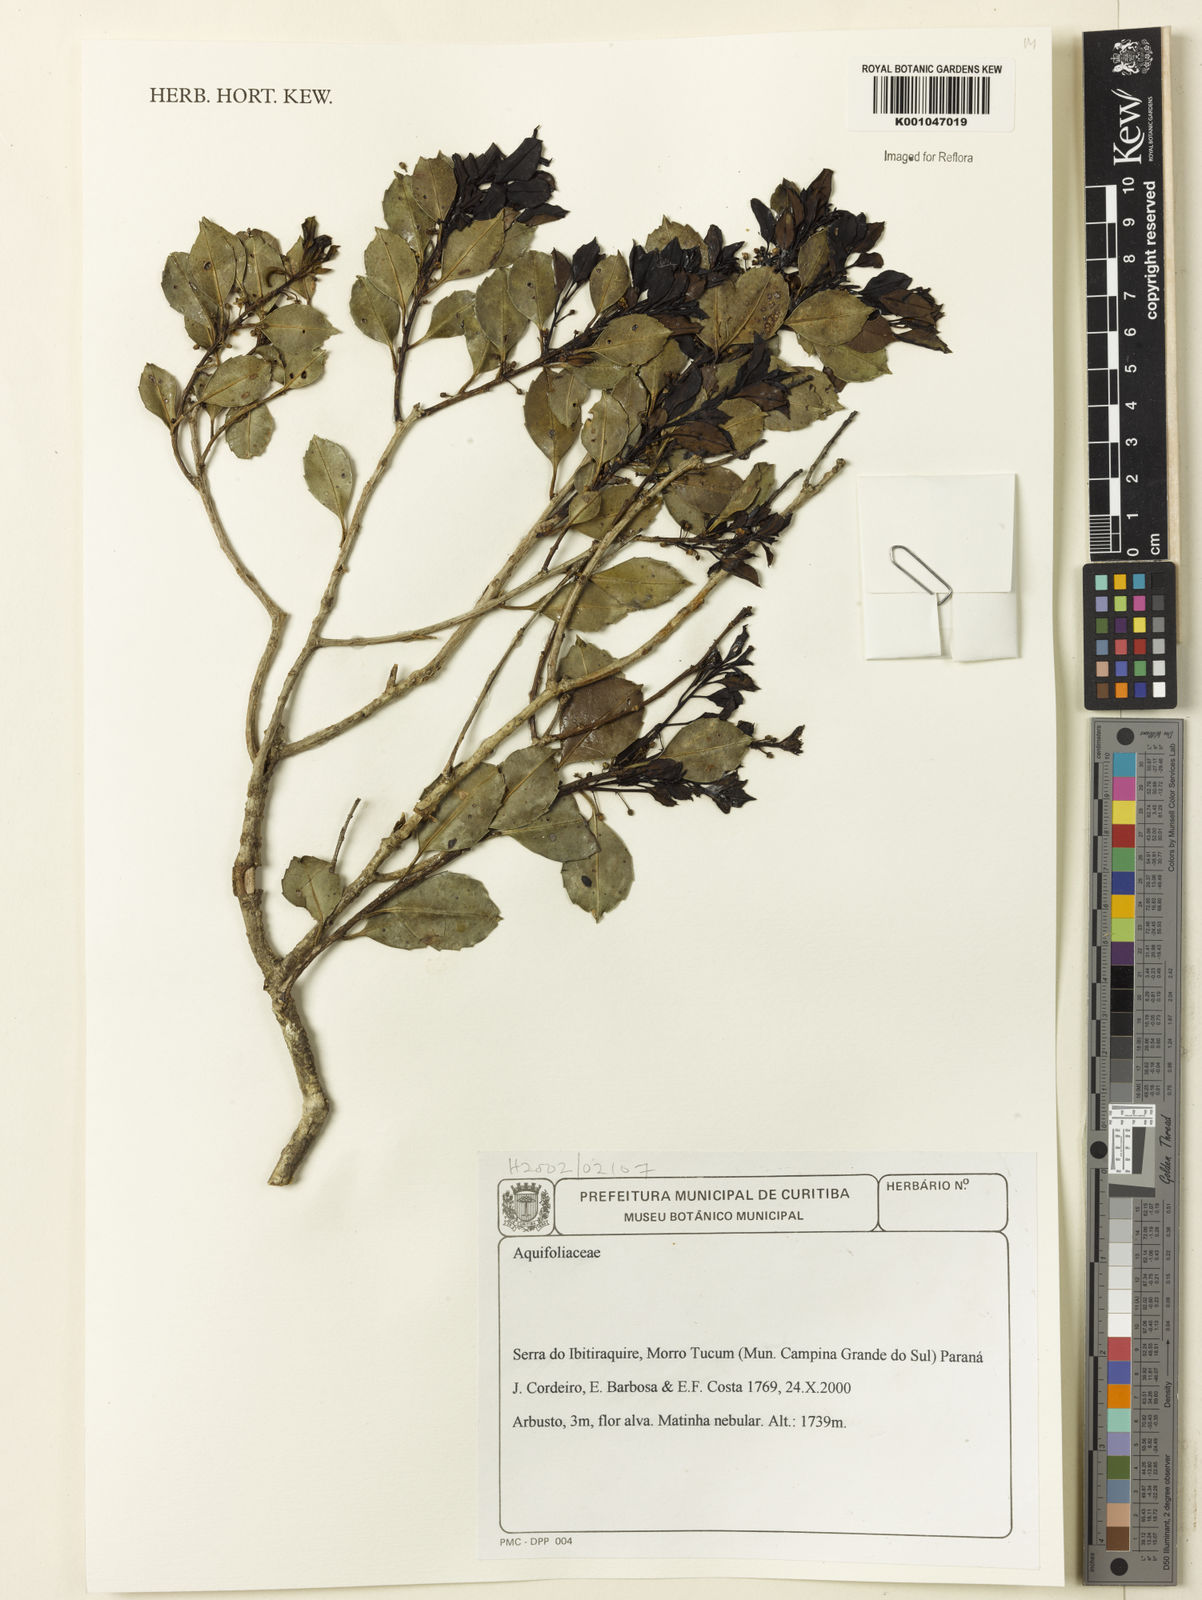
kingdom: Plantae
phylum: Tracheophyta
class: Magnoliopsida
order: Aquifoliales
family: Aquifoliaceae
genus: Ilex
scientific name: Ilex
